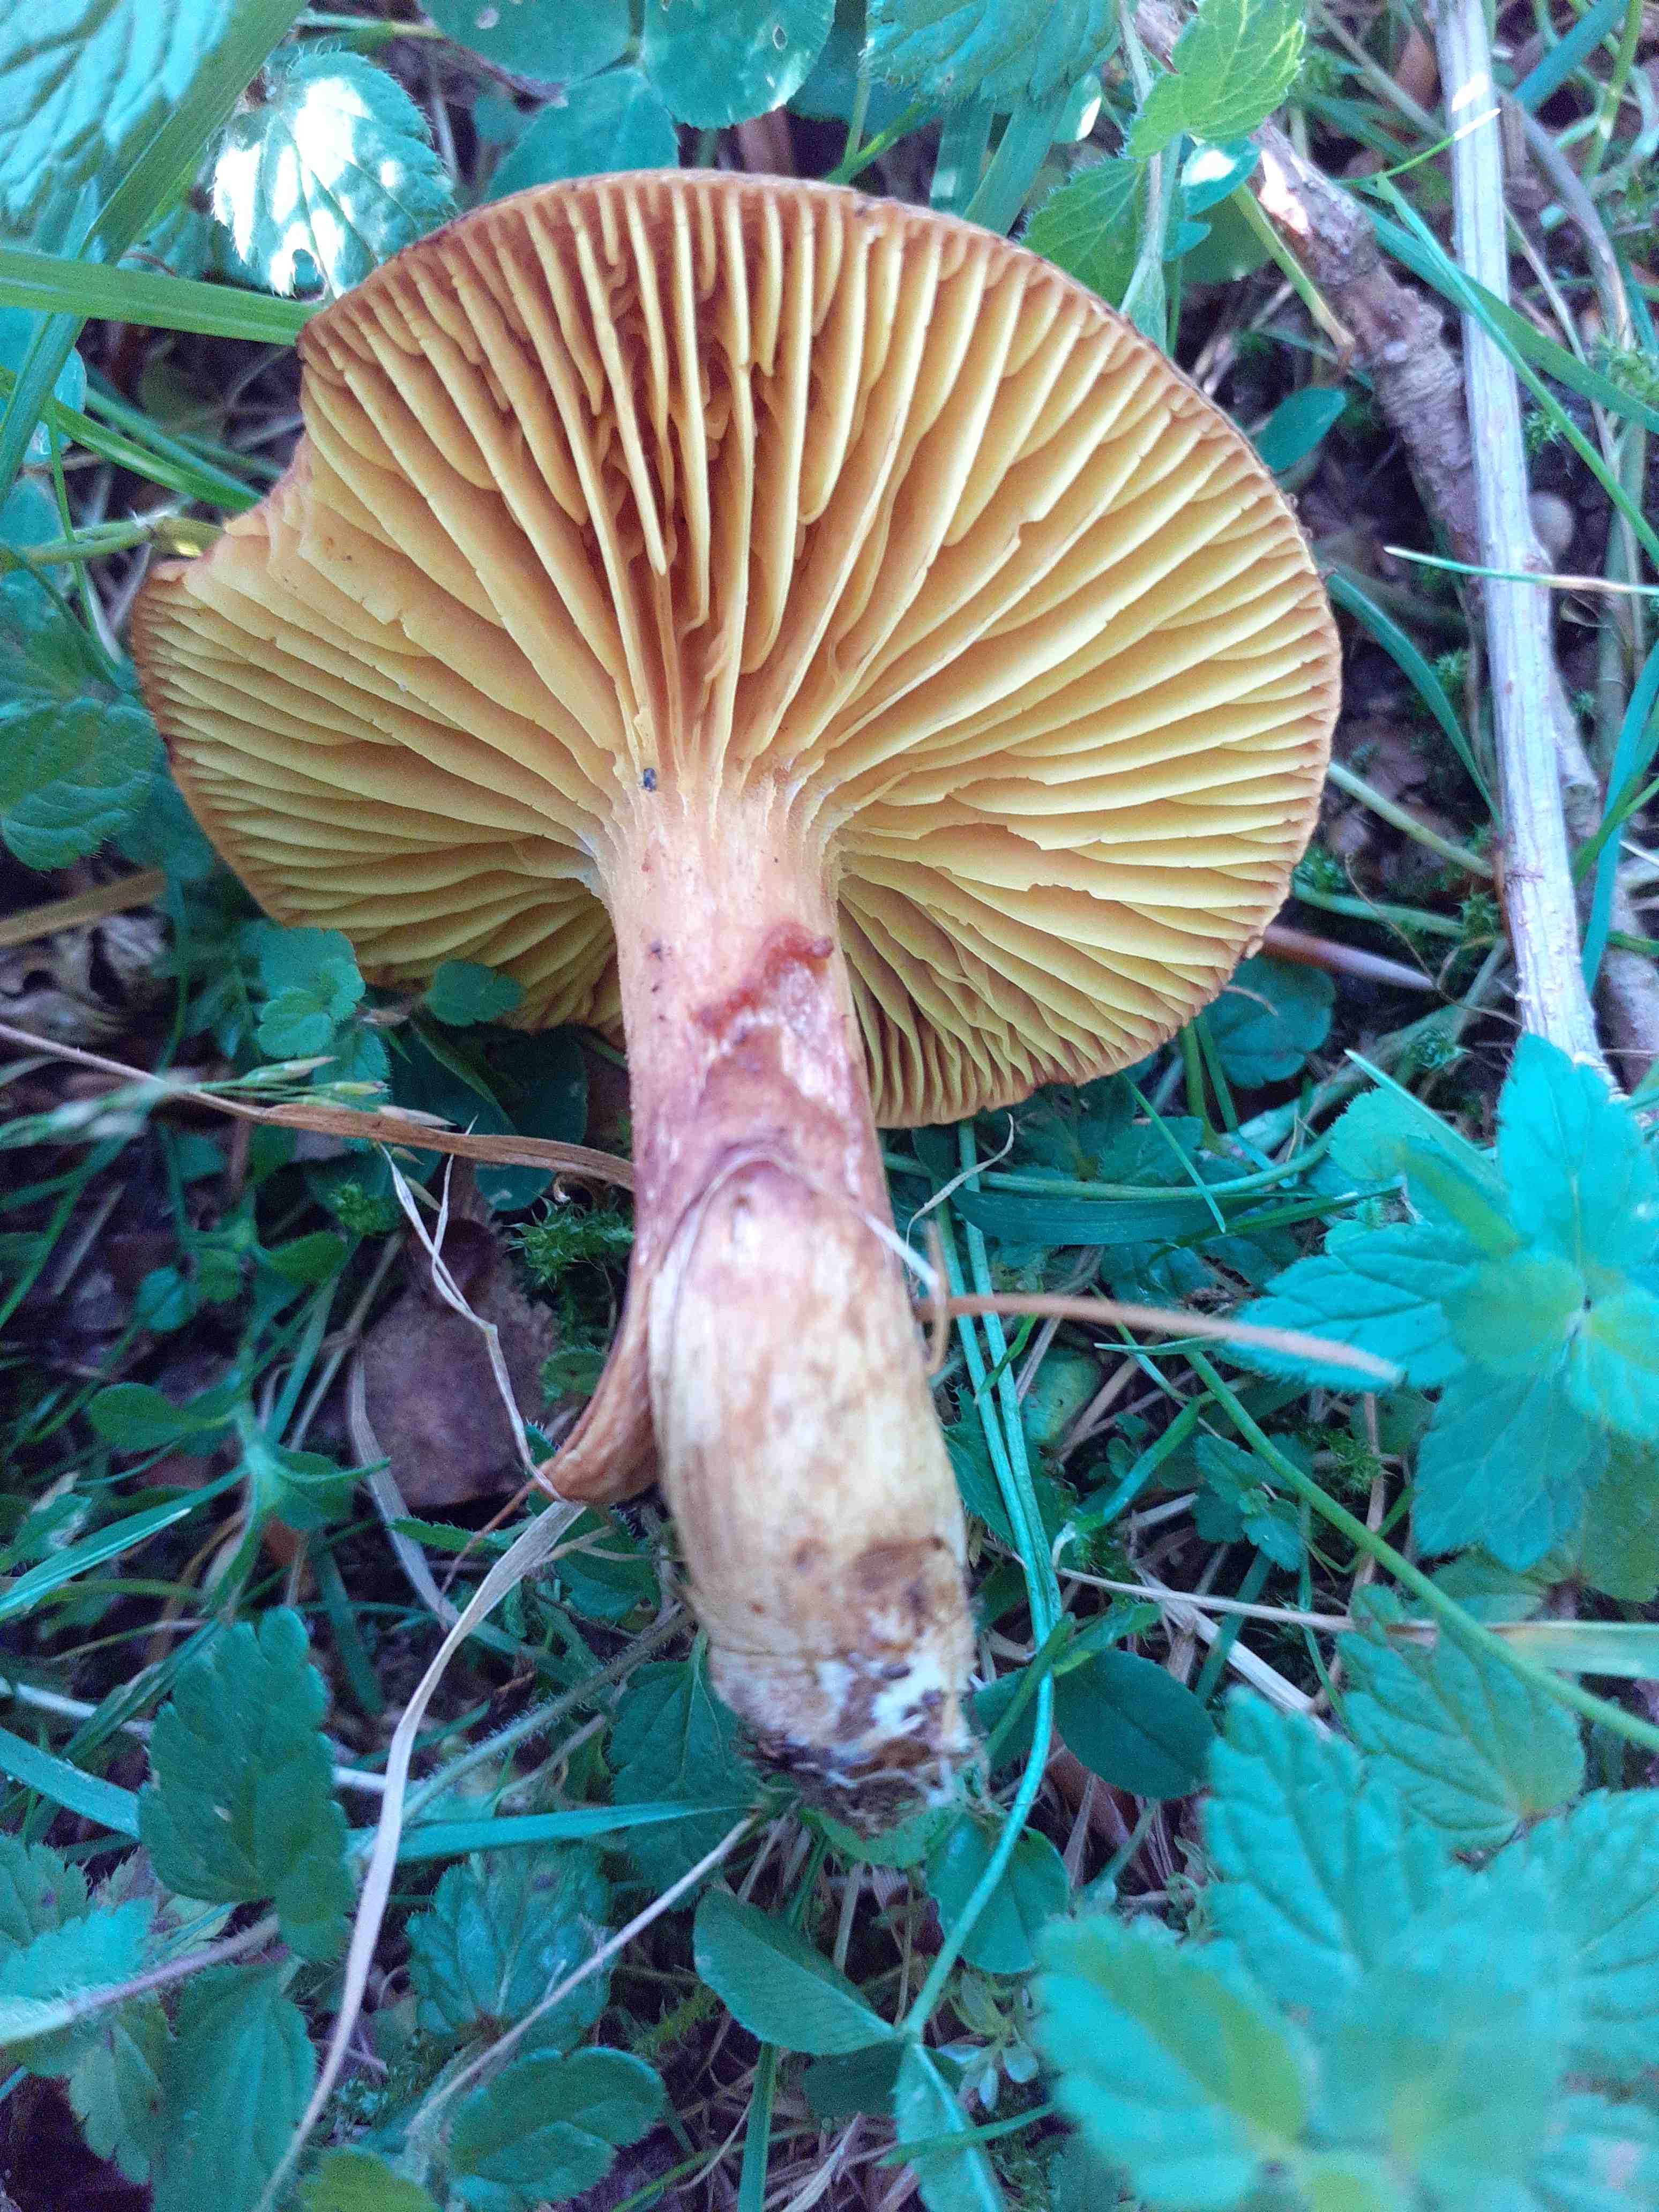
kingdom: Fungi
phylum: Basidiomycota
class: Agaricomycetes
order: Boletales
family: Boletaceae
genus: Phylloporus
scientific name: Phylloporus pelletieri
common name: lamelrørhat
